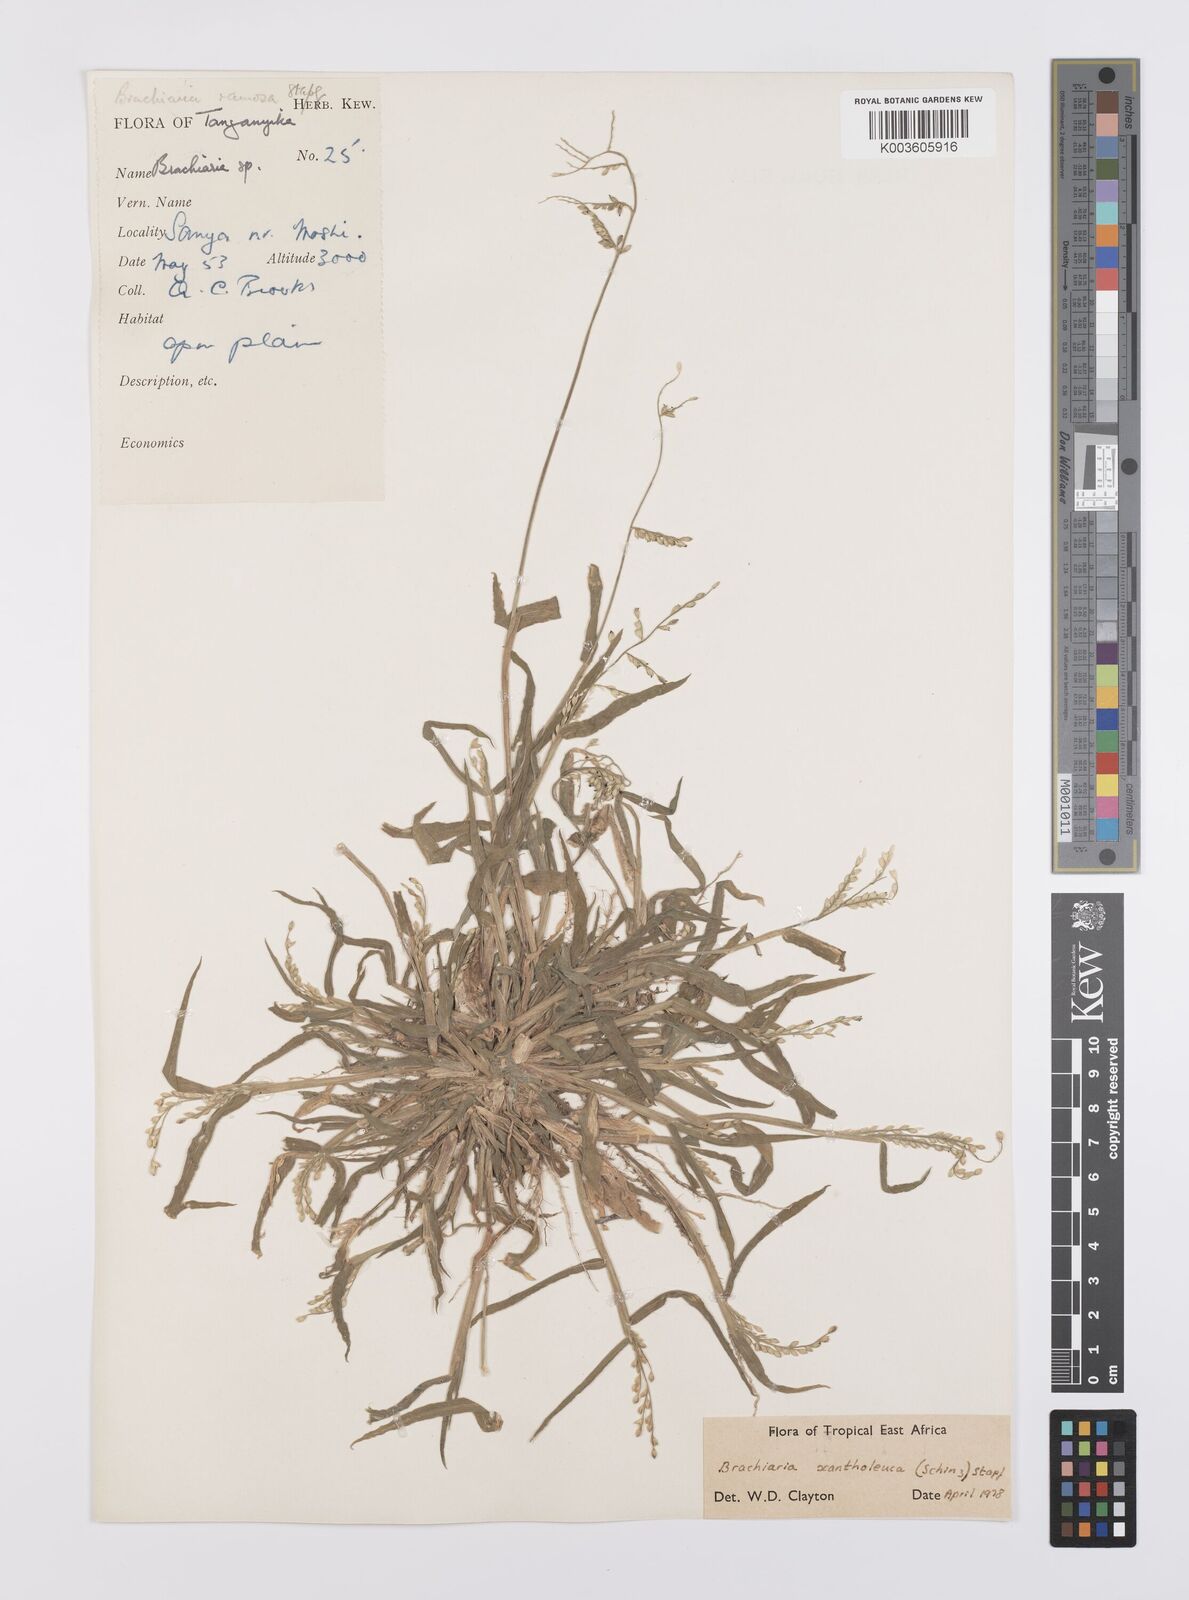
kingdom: Plantae
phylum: Tracheophyta
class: Liliopsida
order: Poales
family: Poaceae
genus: Urochloa
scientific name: Urochloa xantholeuca
